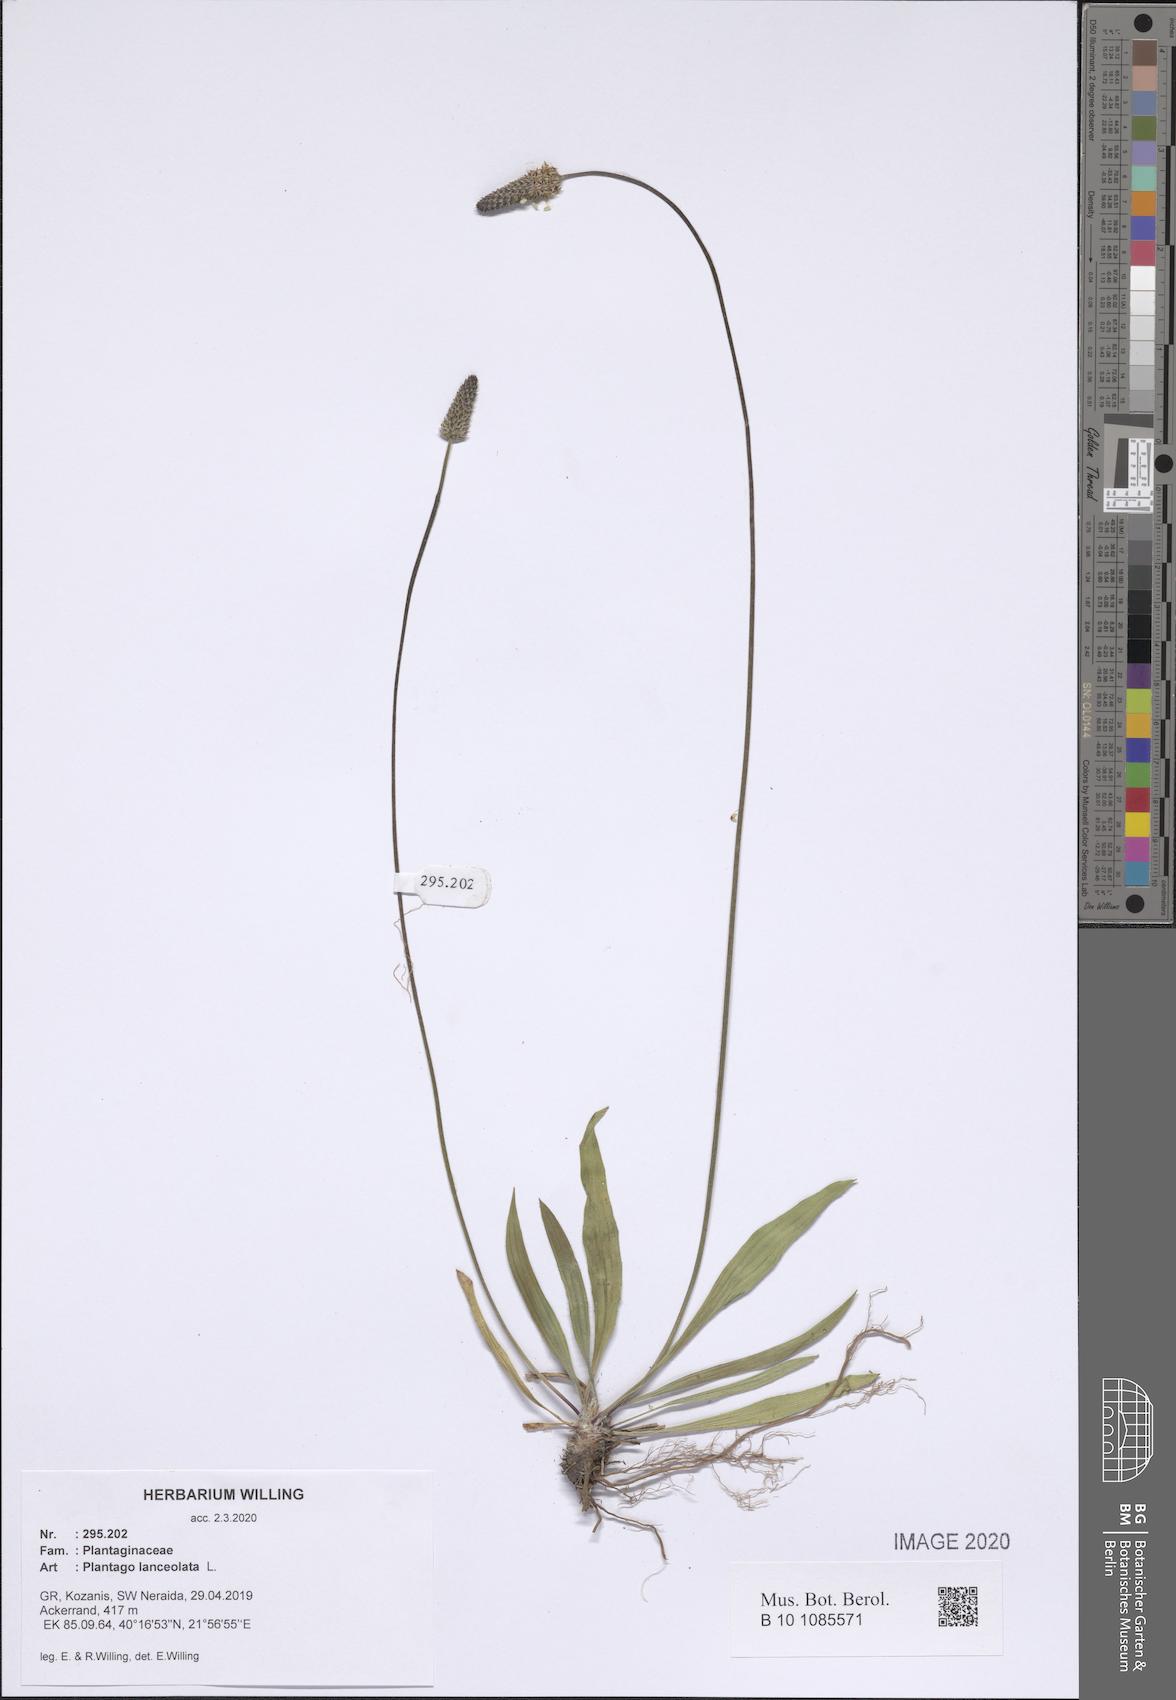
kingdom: Plantae
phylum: Tracheophyta
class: Magnoliopsida
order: Lamiales
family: Plantaginaceae
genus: Plantago
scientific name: Plantago lanceolata
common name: Ribwort plantain
